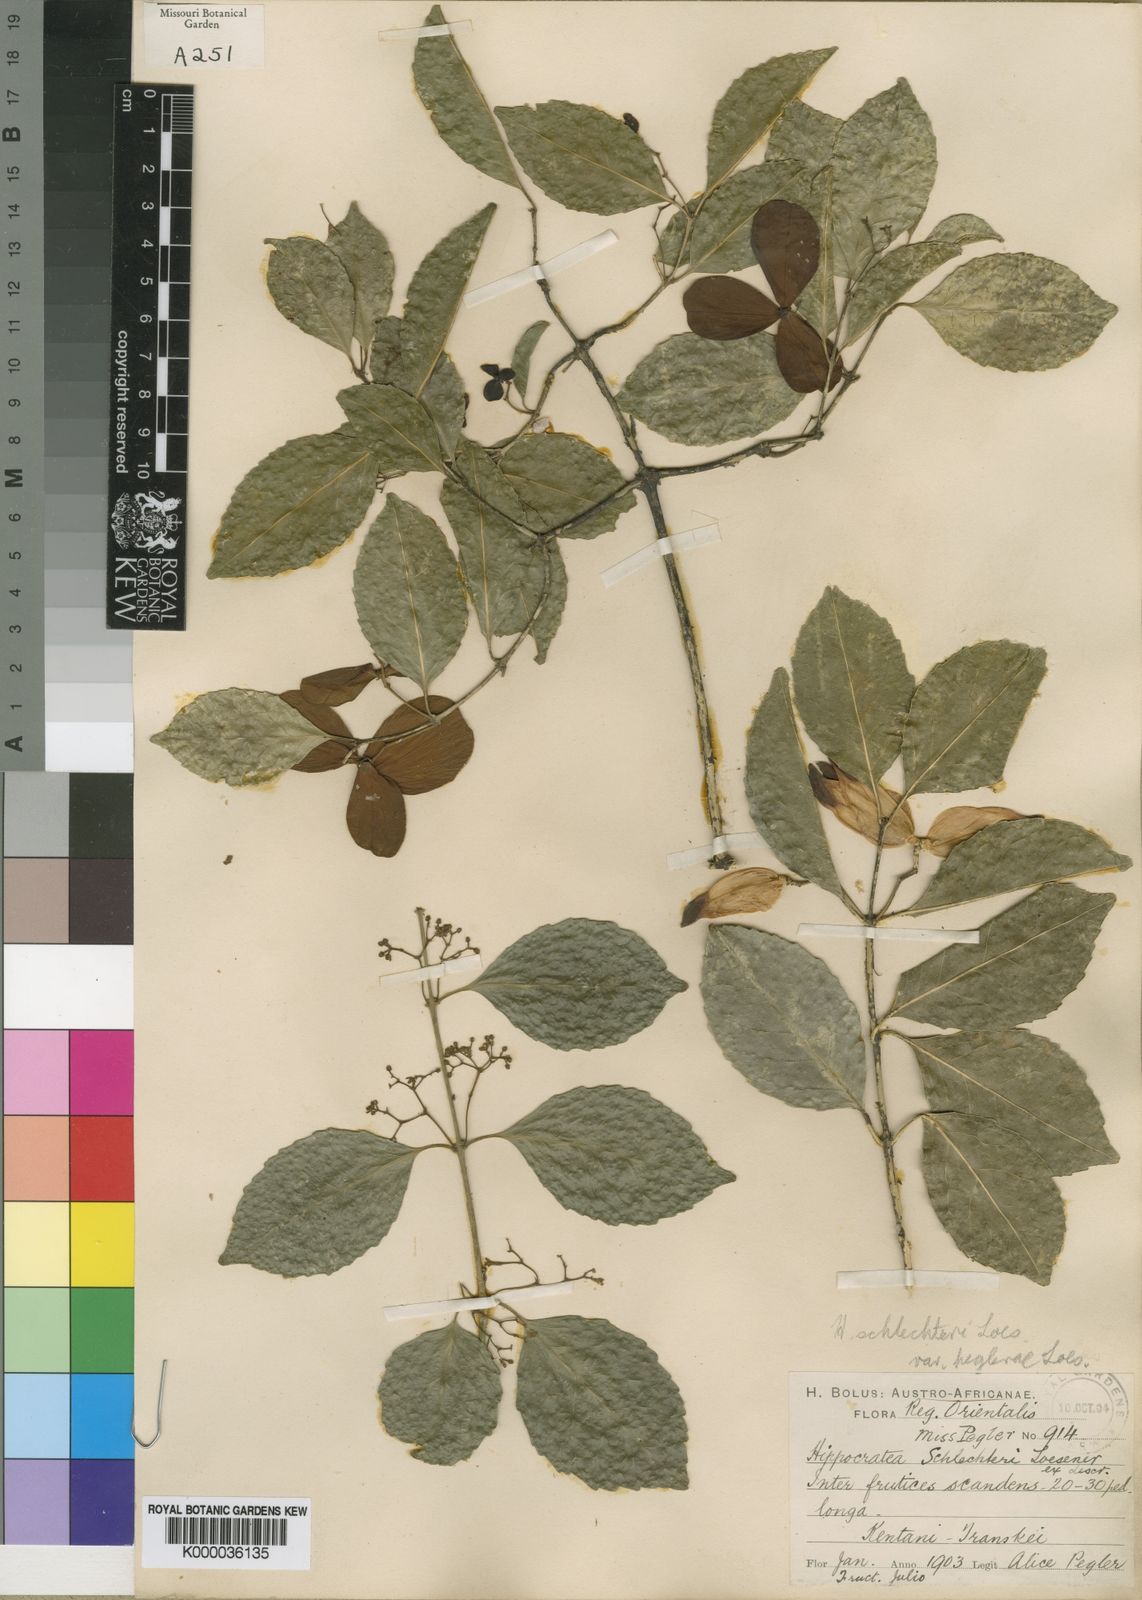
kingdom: Plantae
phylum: Tracheophyta
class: Magnoliopsida
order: Celastrales
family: Celastraceae
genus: Hippocratea
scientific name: Hippocratea
